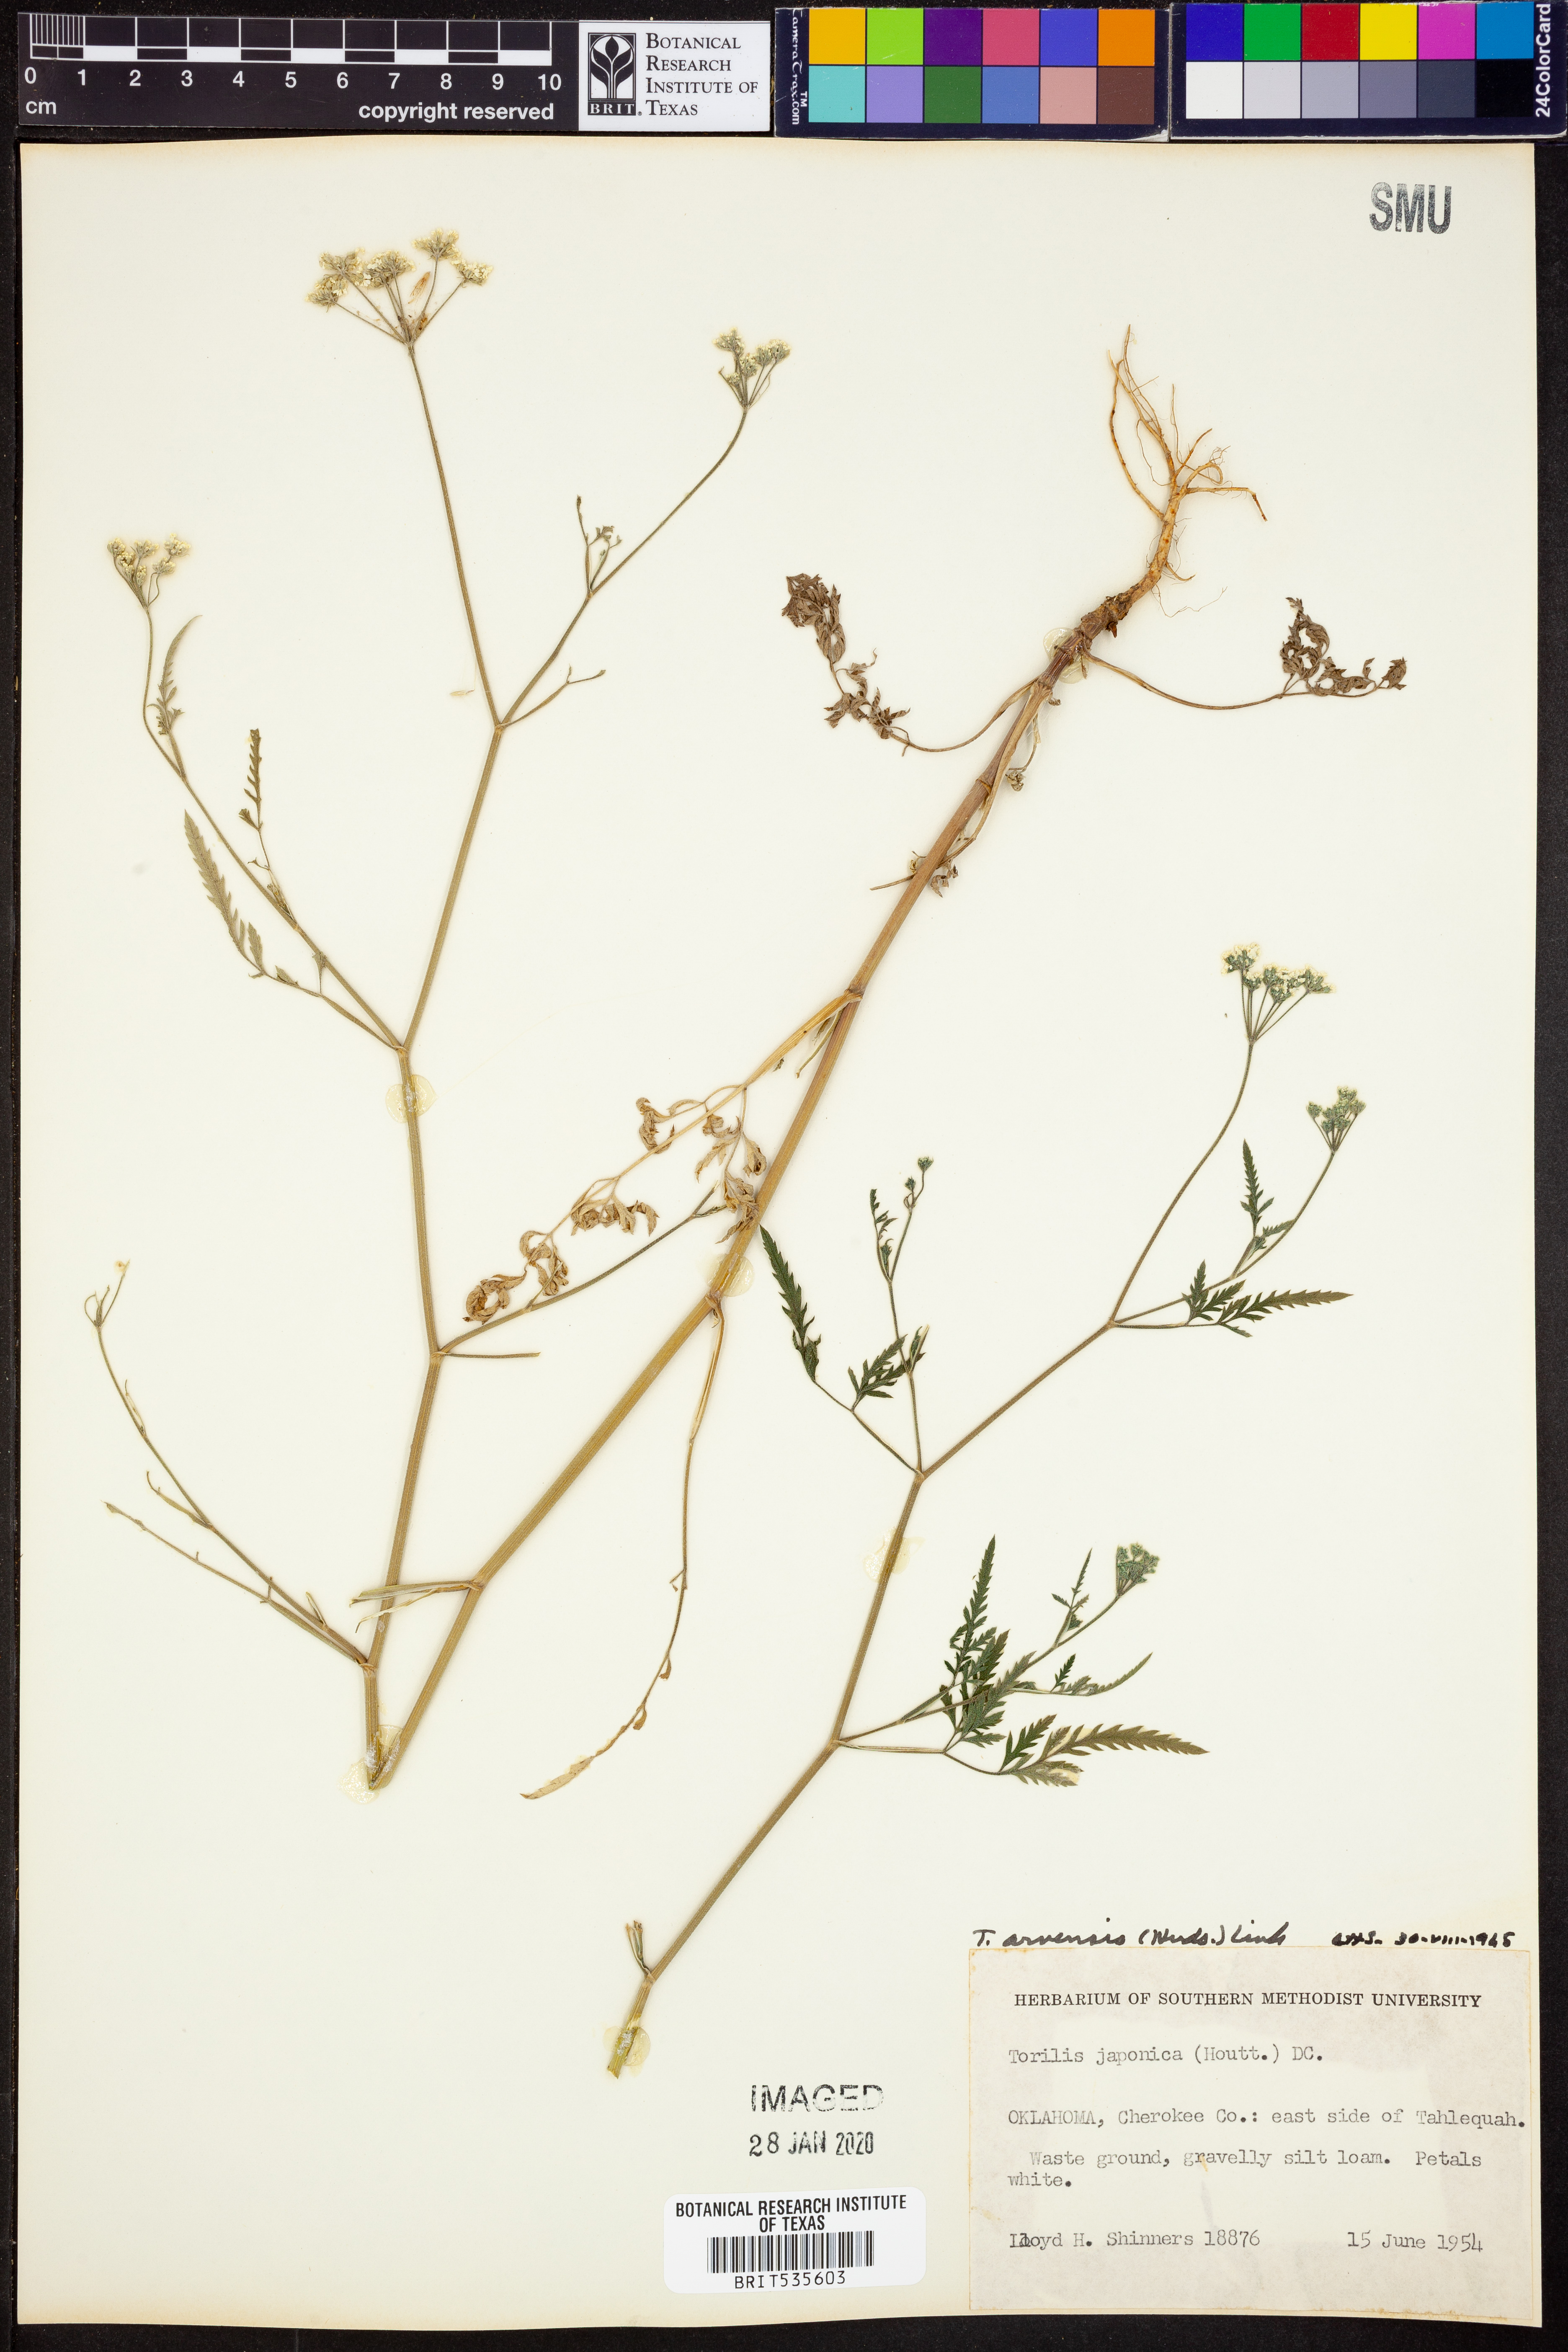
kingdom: Plantae
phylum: Tracheophyta
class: Magnoliopsida
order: Apiales
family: Apiaceae
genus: Torilis
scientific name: Torilis arvensis
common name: Spreading hedge-parsley
